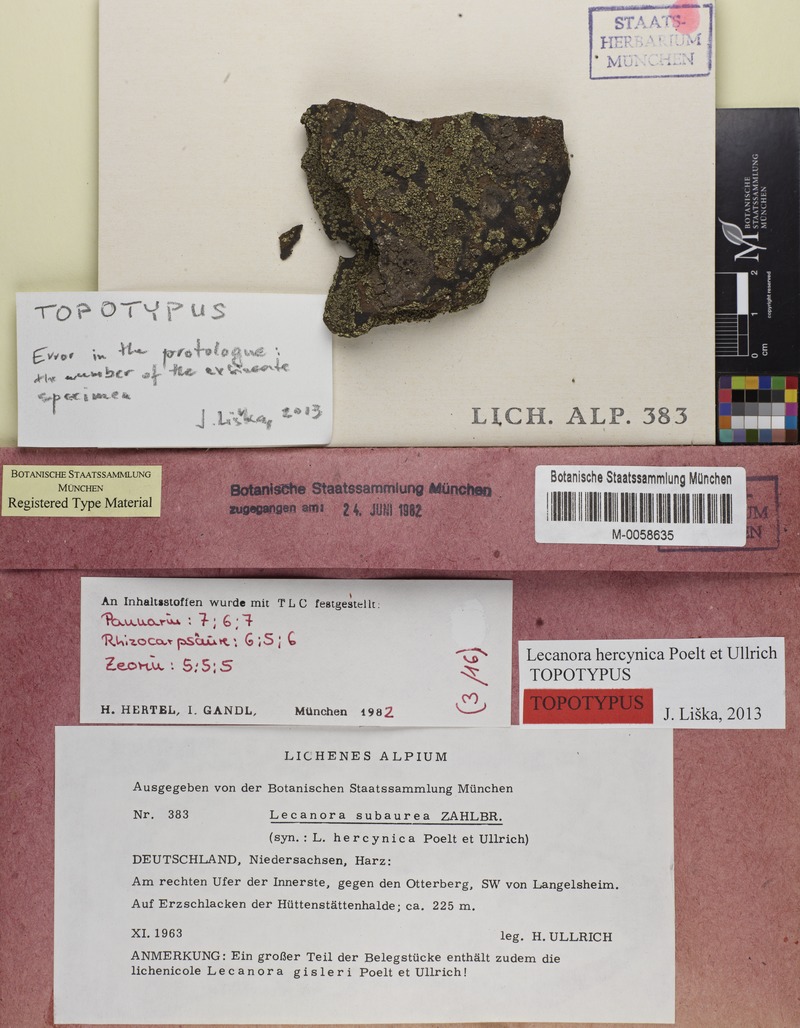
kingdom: Fungi
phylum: Ascomycota
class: Lecanoromycetes
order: Lecanorales
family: Lecanoraceae
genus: Lecanora
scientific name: Lecanora subaurea
